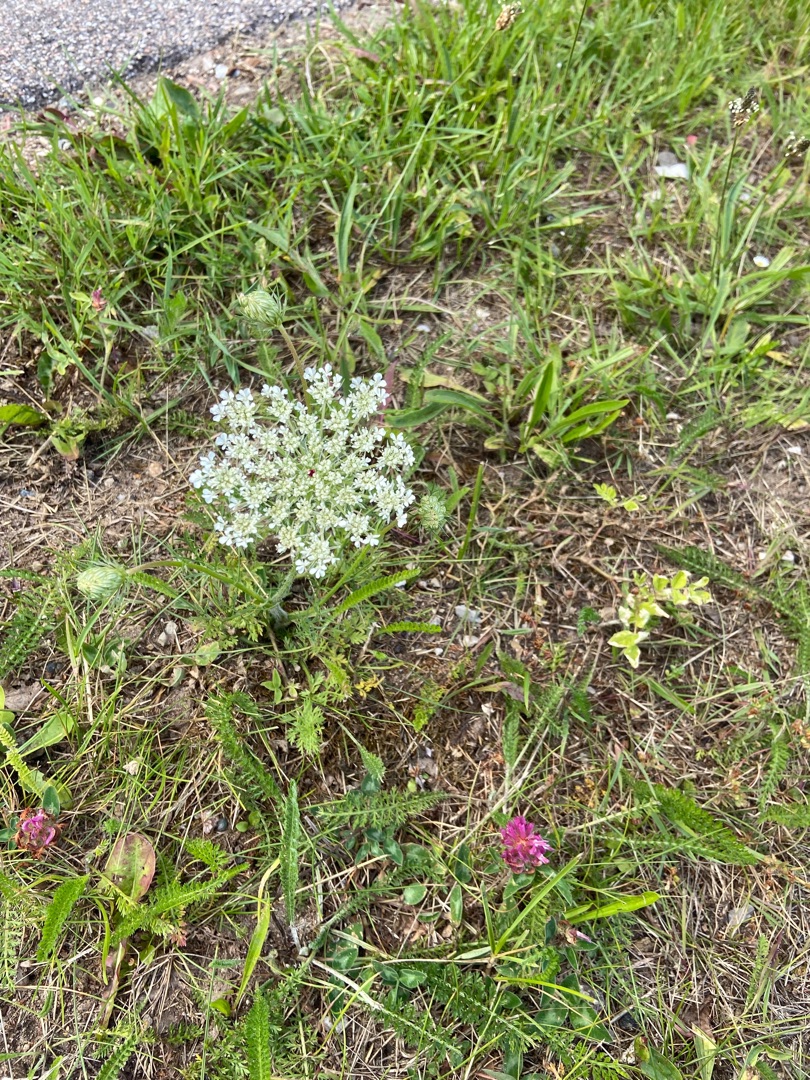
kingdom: Plantae
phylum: Tracheophyta
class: Magnoliopsida
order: Apiales
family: Apiaceae
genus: Daucus
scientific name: Daucus carota
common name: Gulerod
